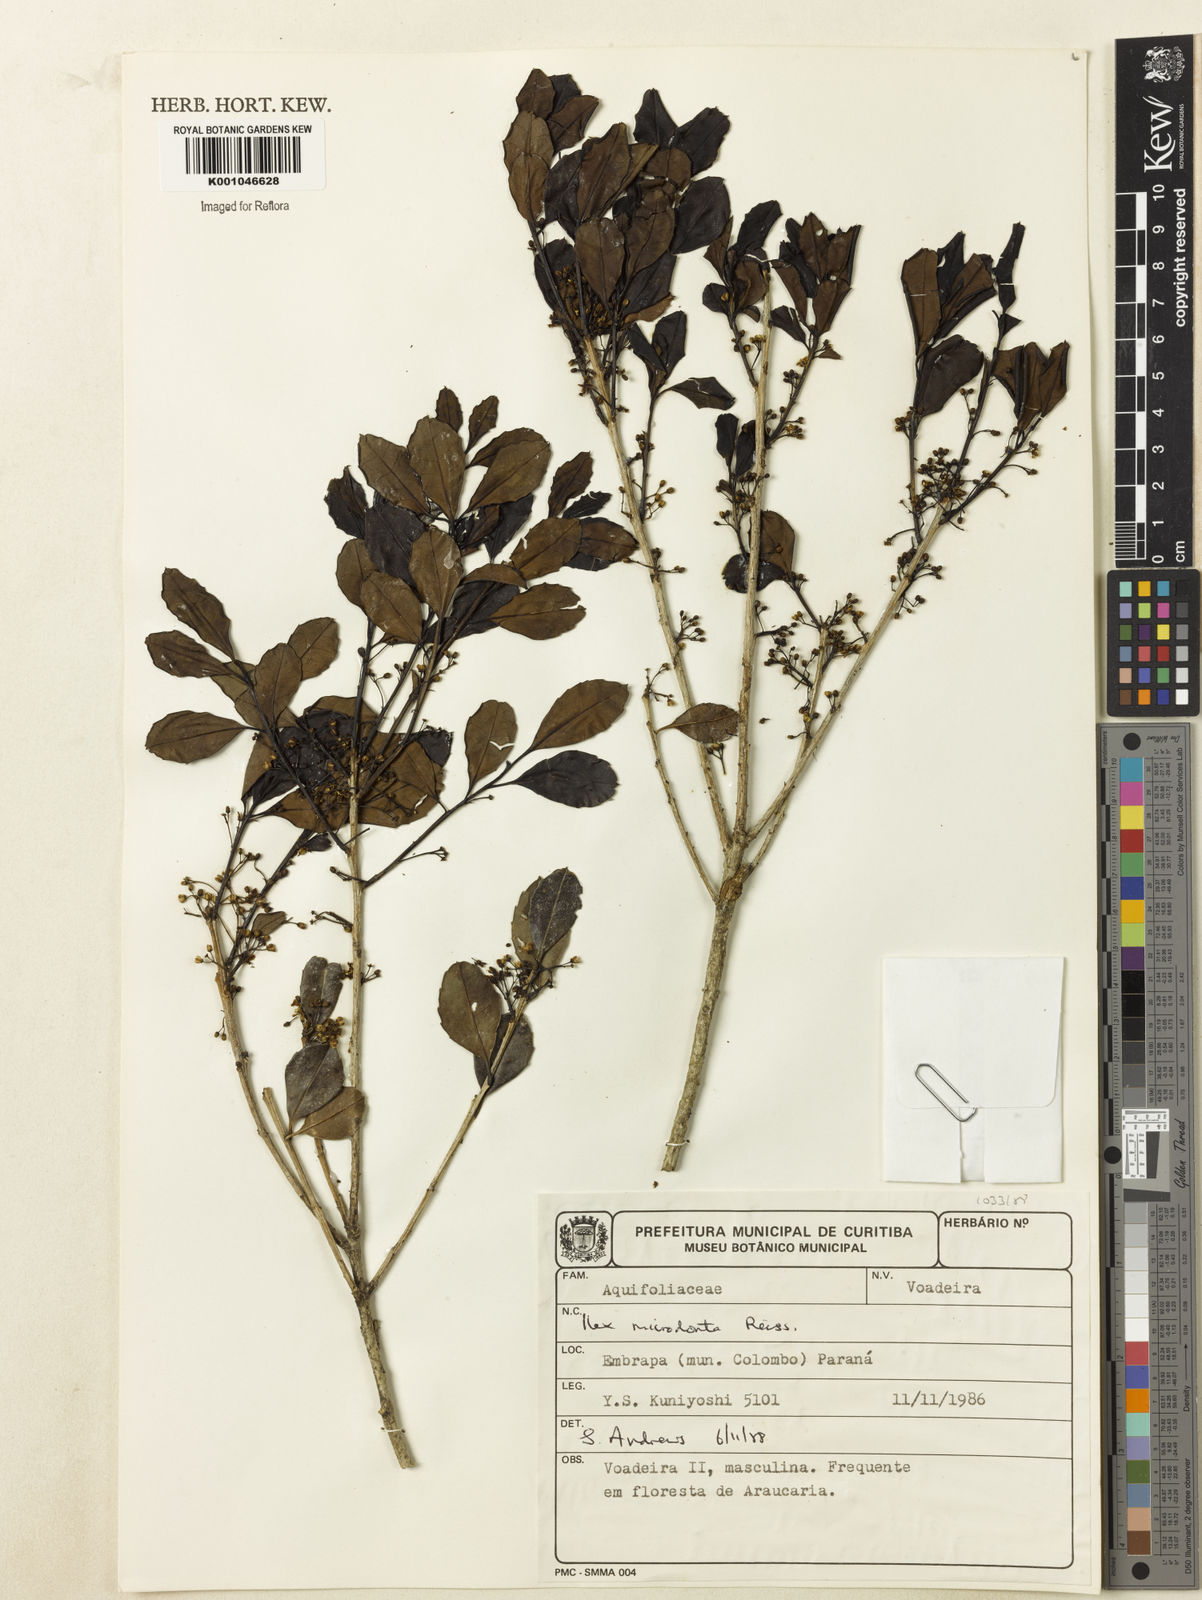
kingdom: Plantae
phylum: Tracheophyta
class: Magnoliopsida
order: Aquifoliales
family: Aquifoliaceae
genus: Ilex
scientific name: Ilex microdonta
